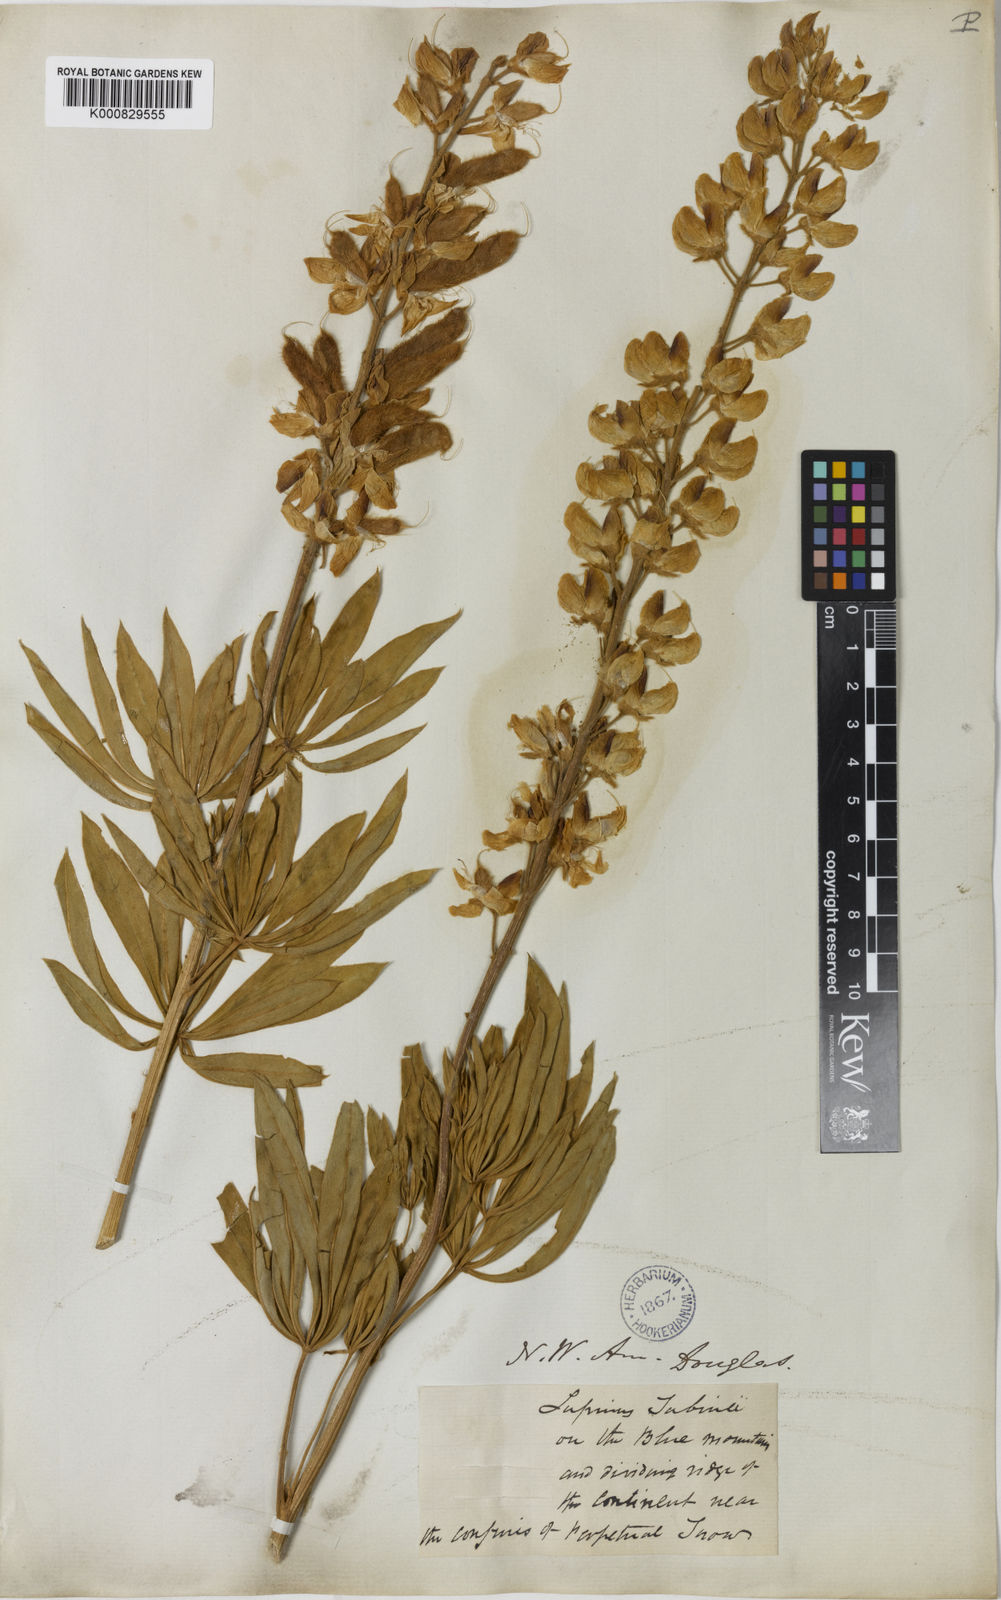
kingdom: Plantae
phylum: Tracheophyta
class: Magnoliopsida
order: Fabales
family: Fabaceae
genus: Lupinus
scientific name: Lupinus sabinianus
